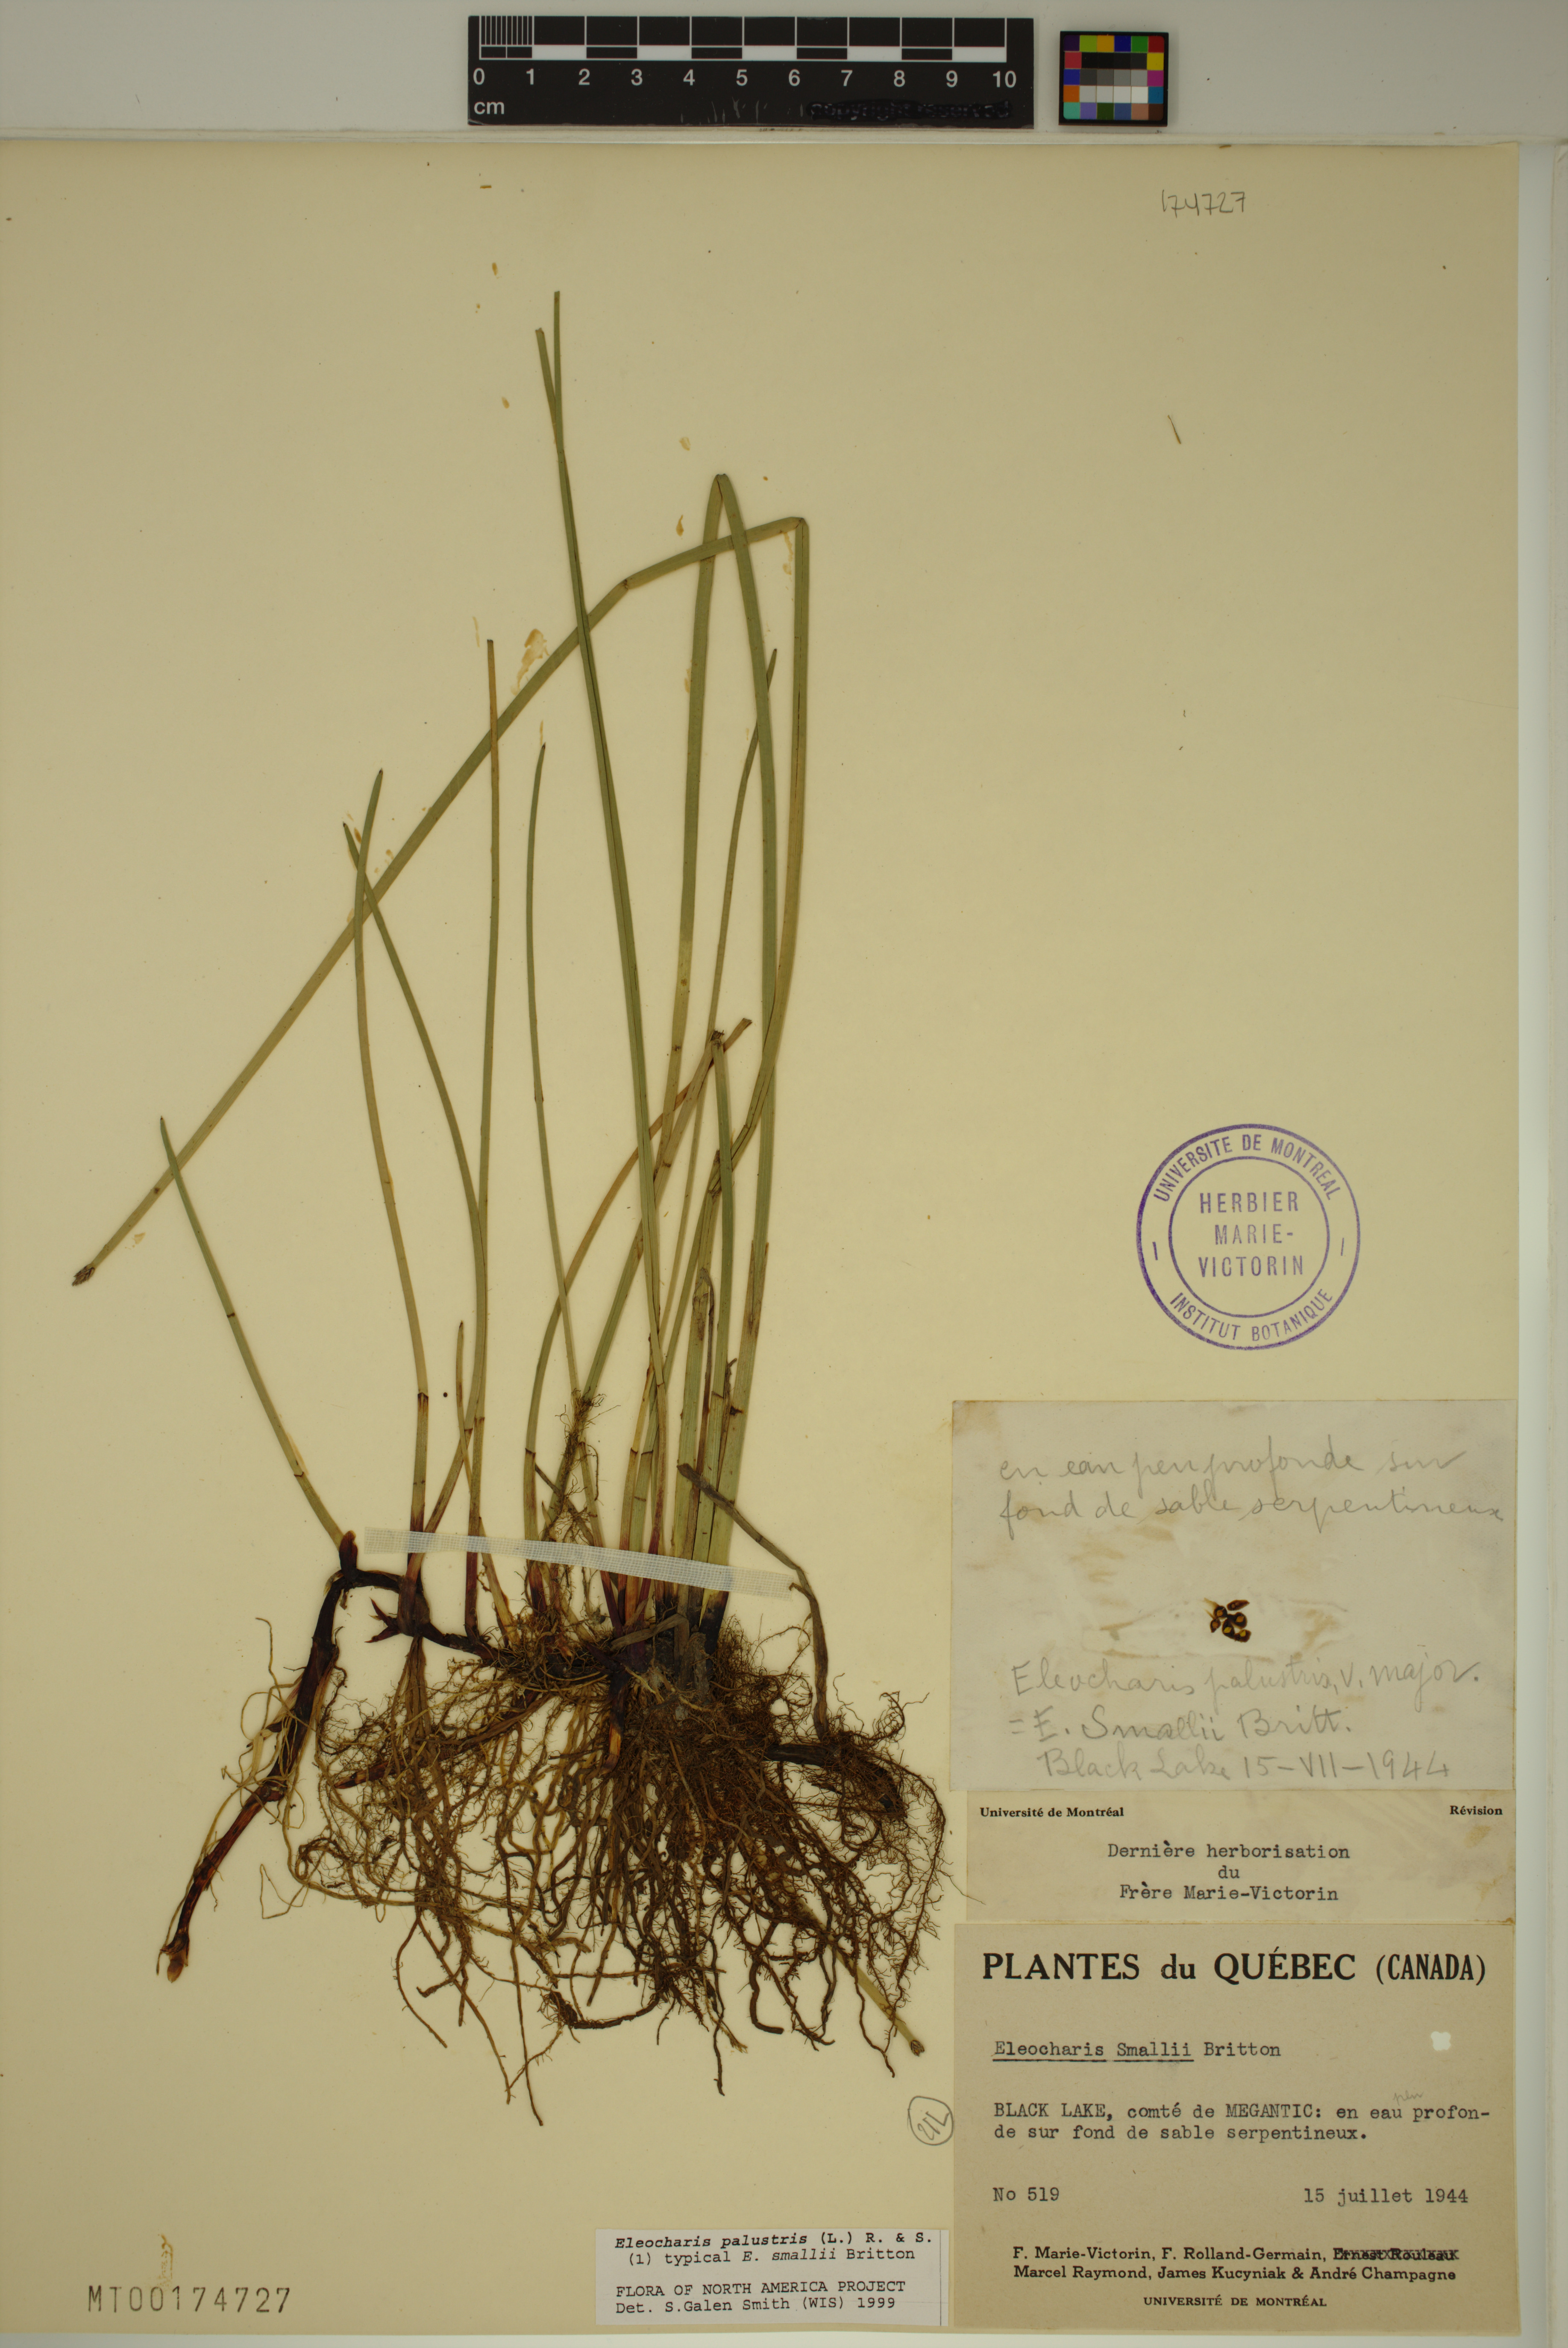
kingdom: Plantae
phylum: Tracheophyta
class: Liliopsida
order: Poales
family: Cyperaceae
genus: Eleocharis
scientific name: Eleocharis palustris
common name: Common spike-rush
